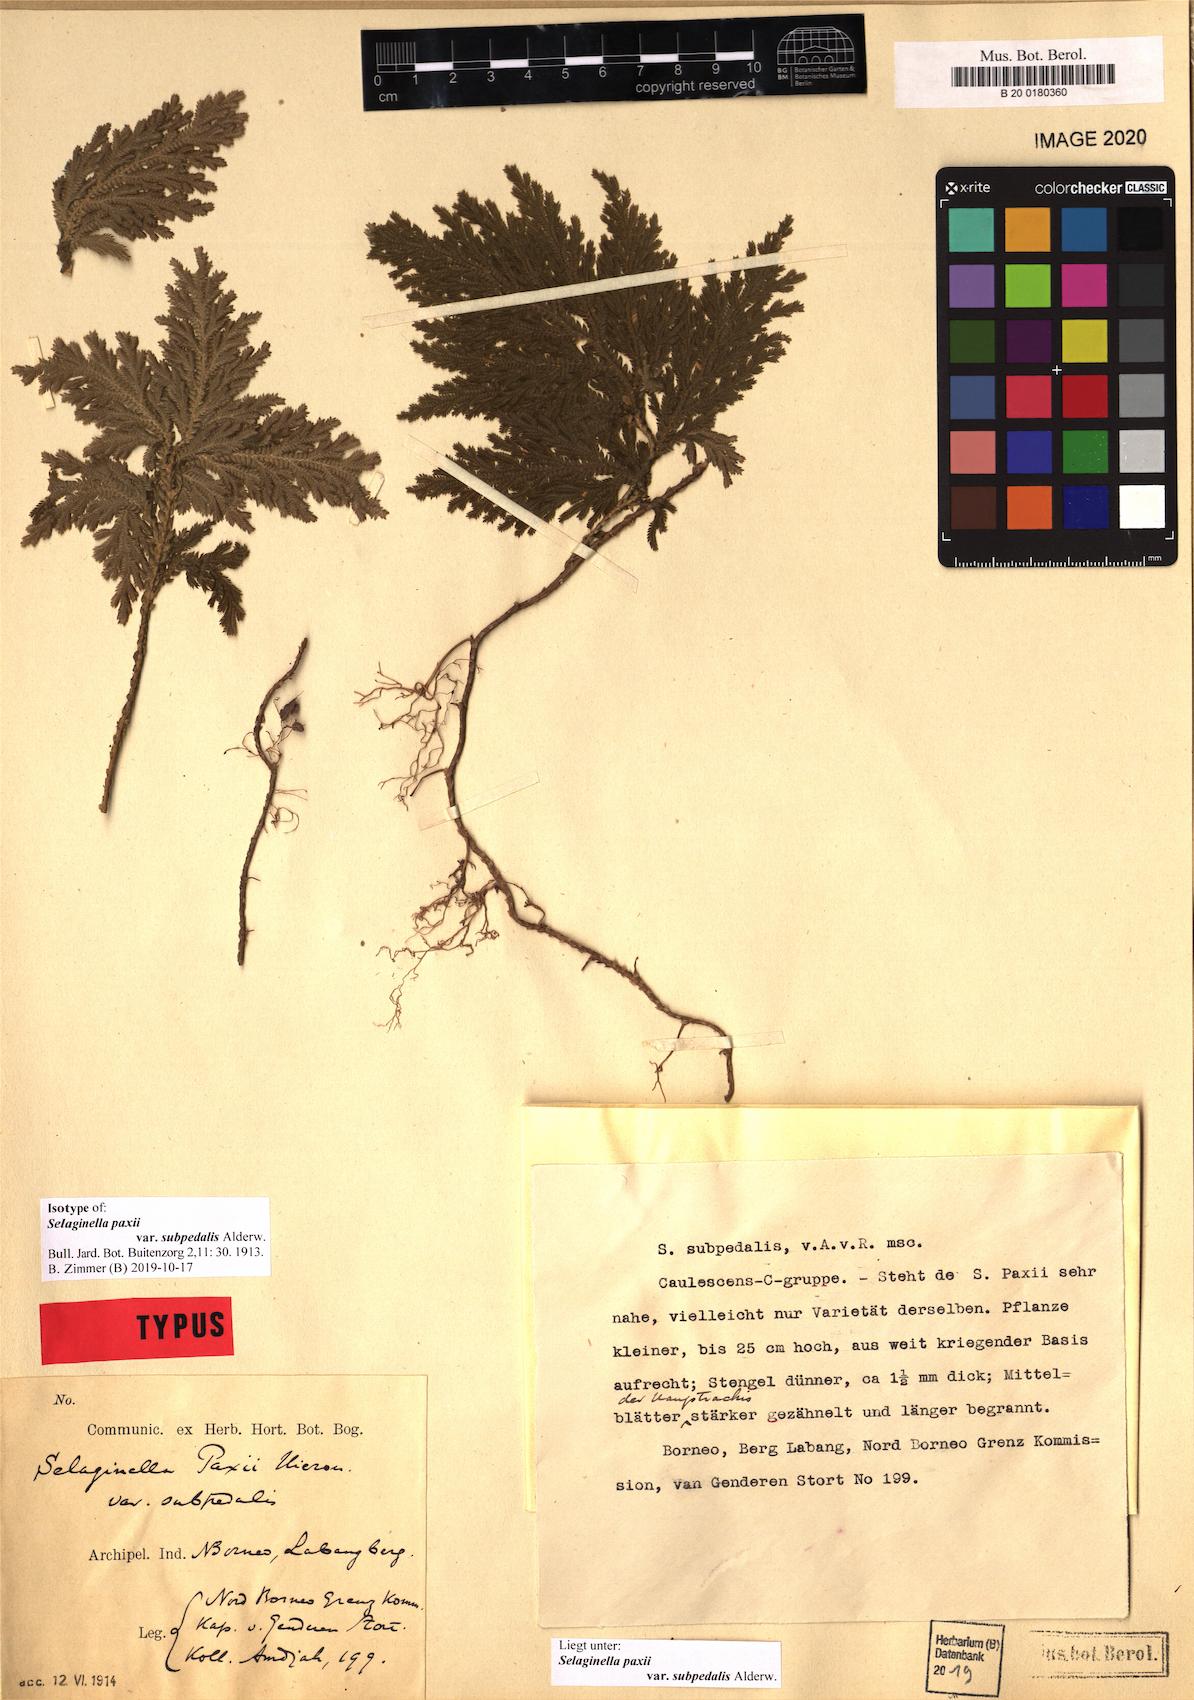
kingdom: Plantae
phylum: Tracheophyta
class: Lycopodiopsida
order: Selaginellales
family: Selaginellaceae
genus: Selaginella
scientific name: Selaginella paxii
